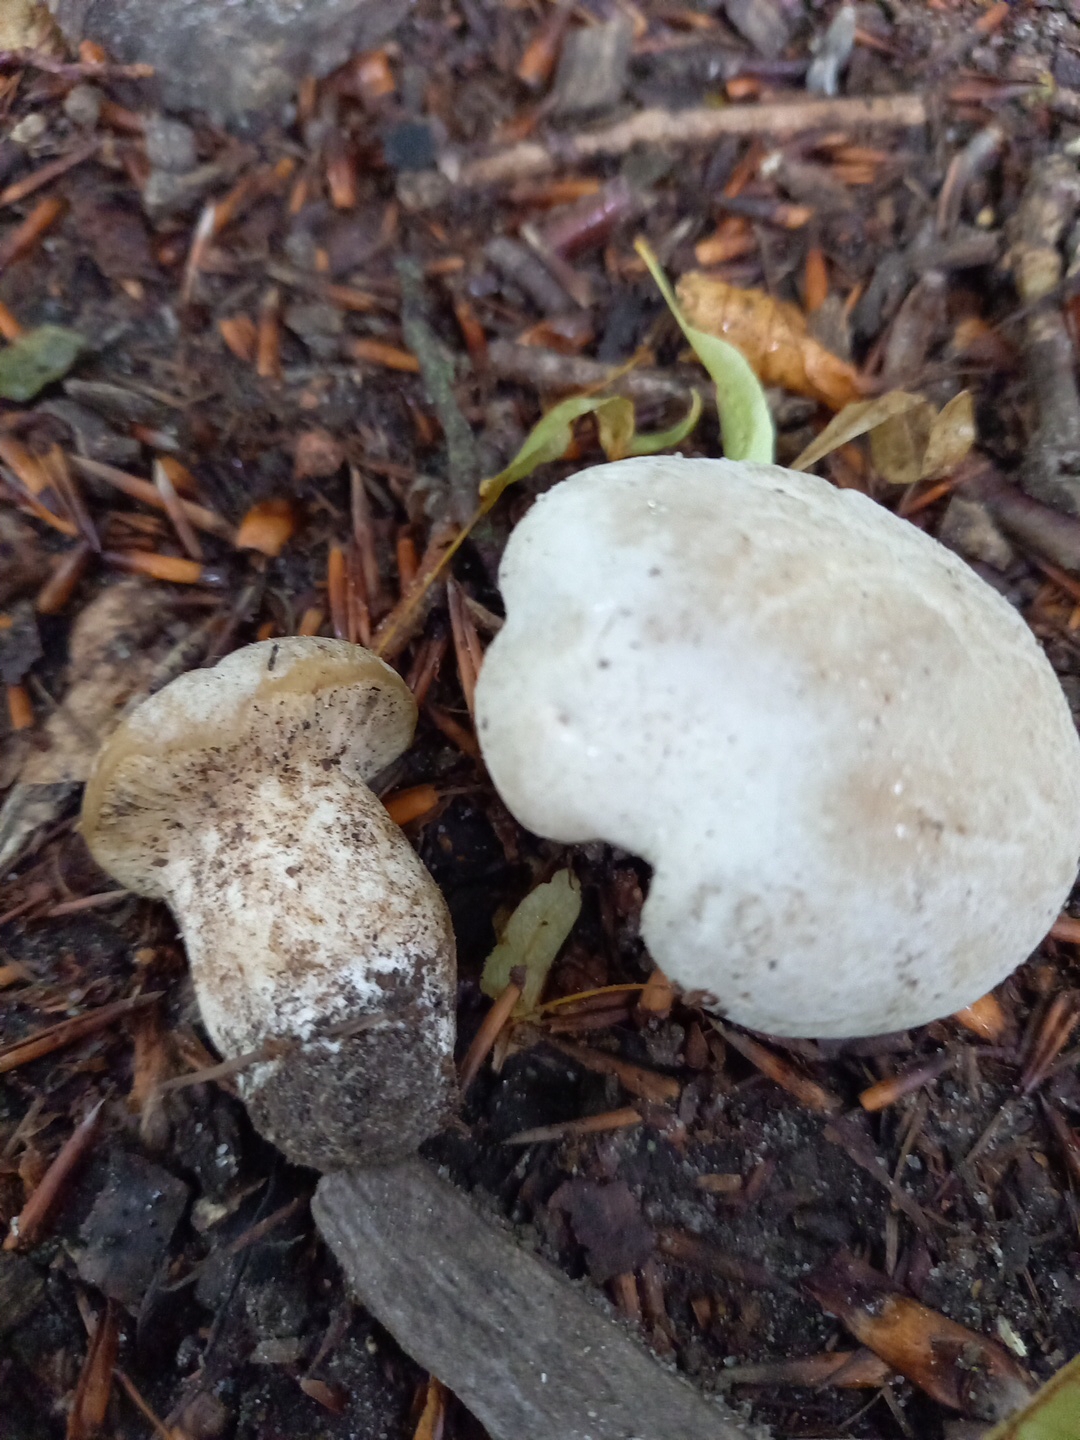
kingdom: Fungi
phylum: Basidiomycota
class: Agaricomycetes
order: Agaricales
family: Entolomataceae
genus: Clitopilus
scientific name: Clitopilus prunulus
